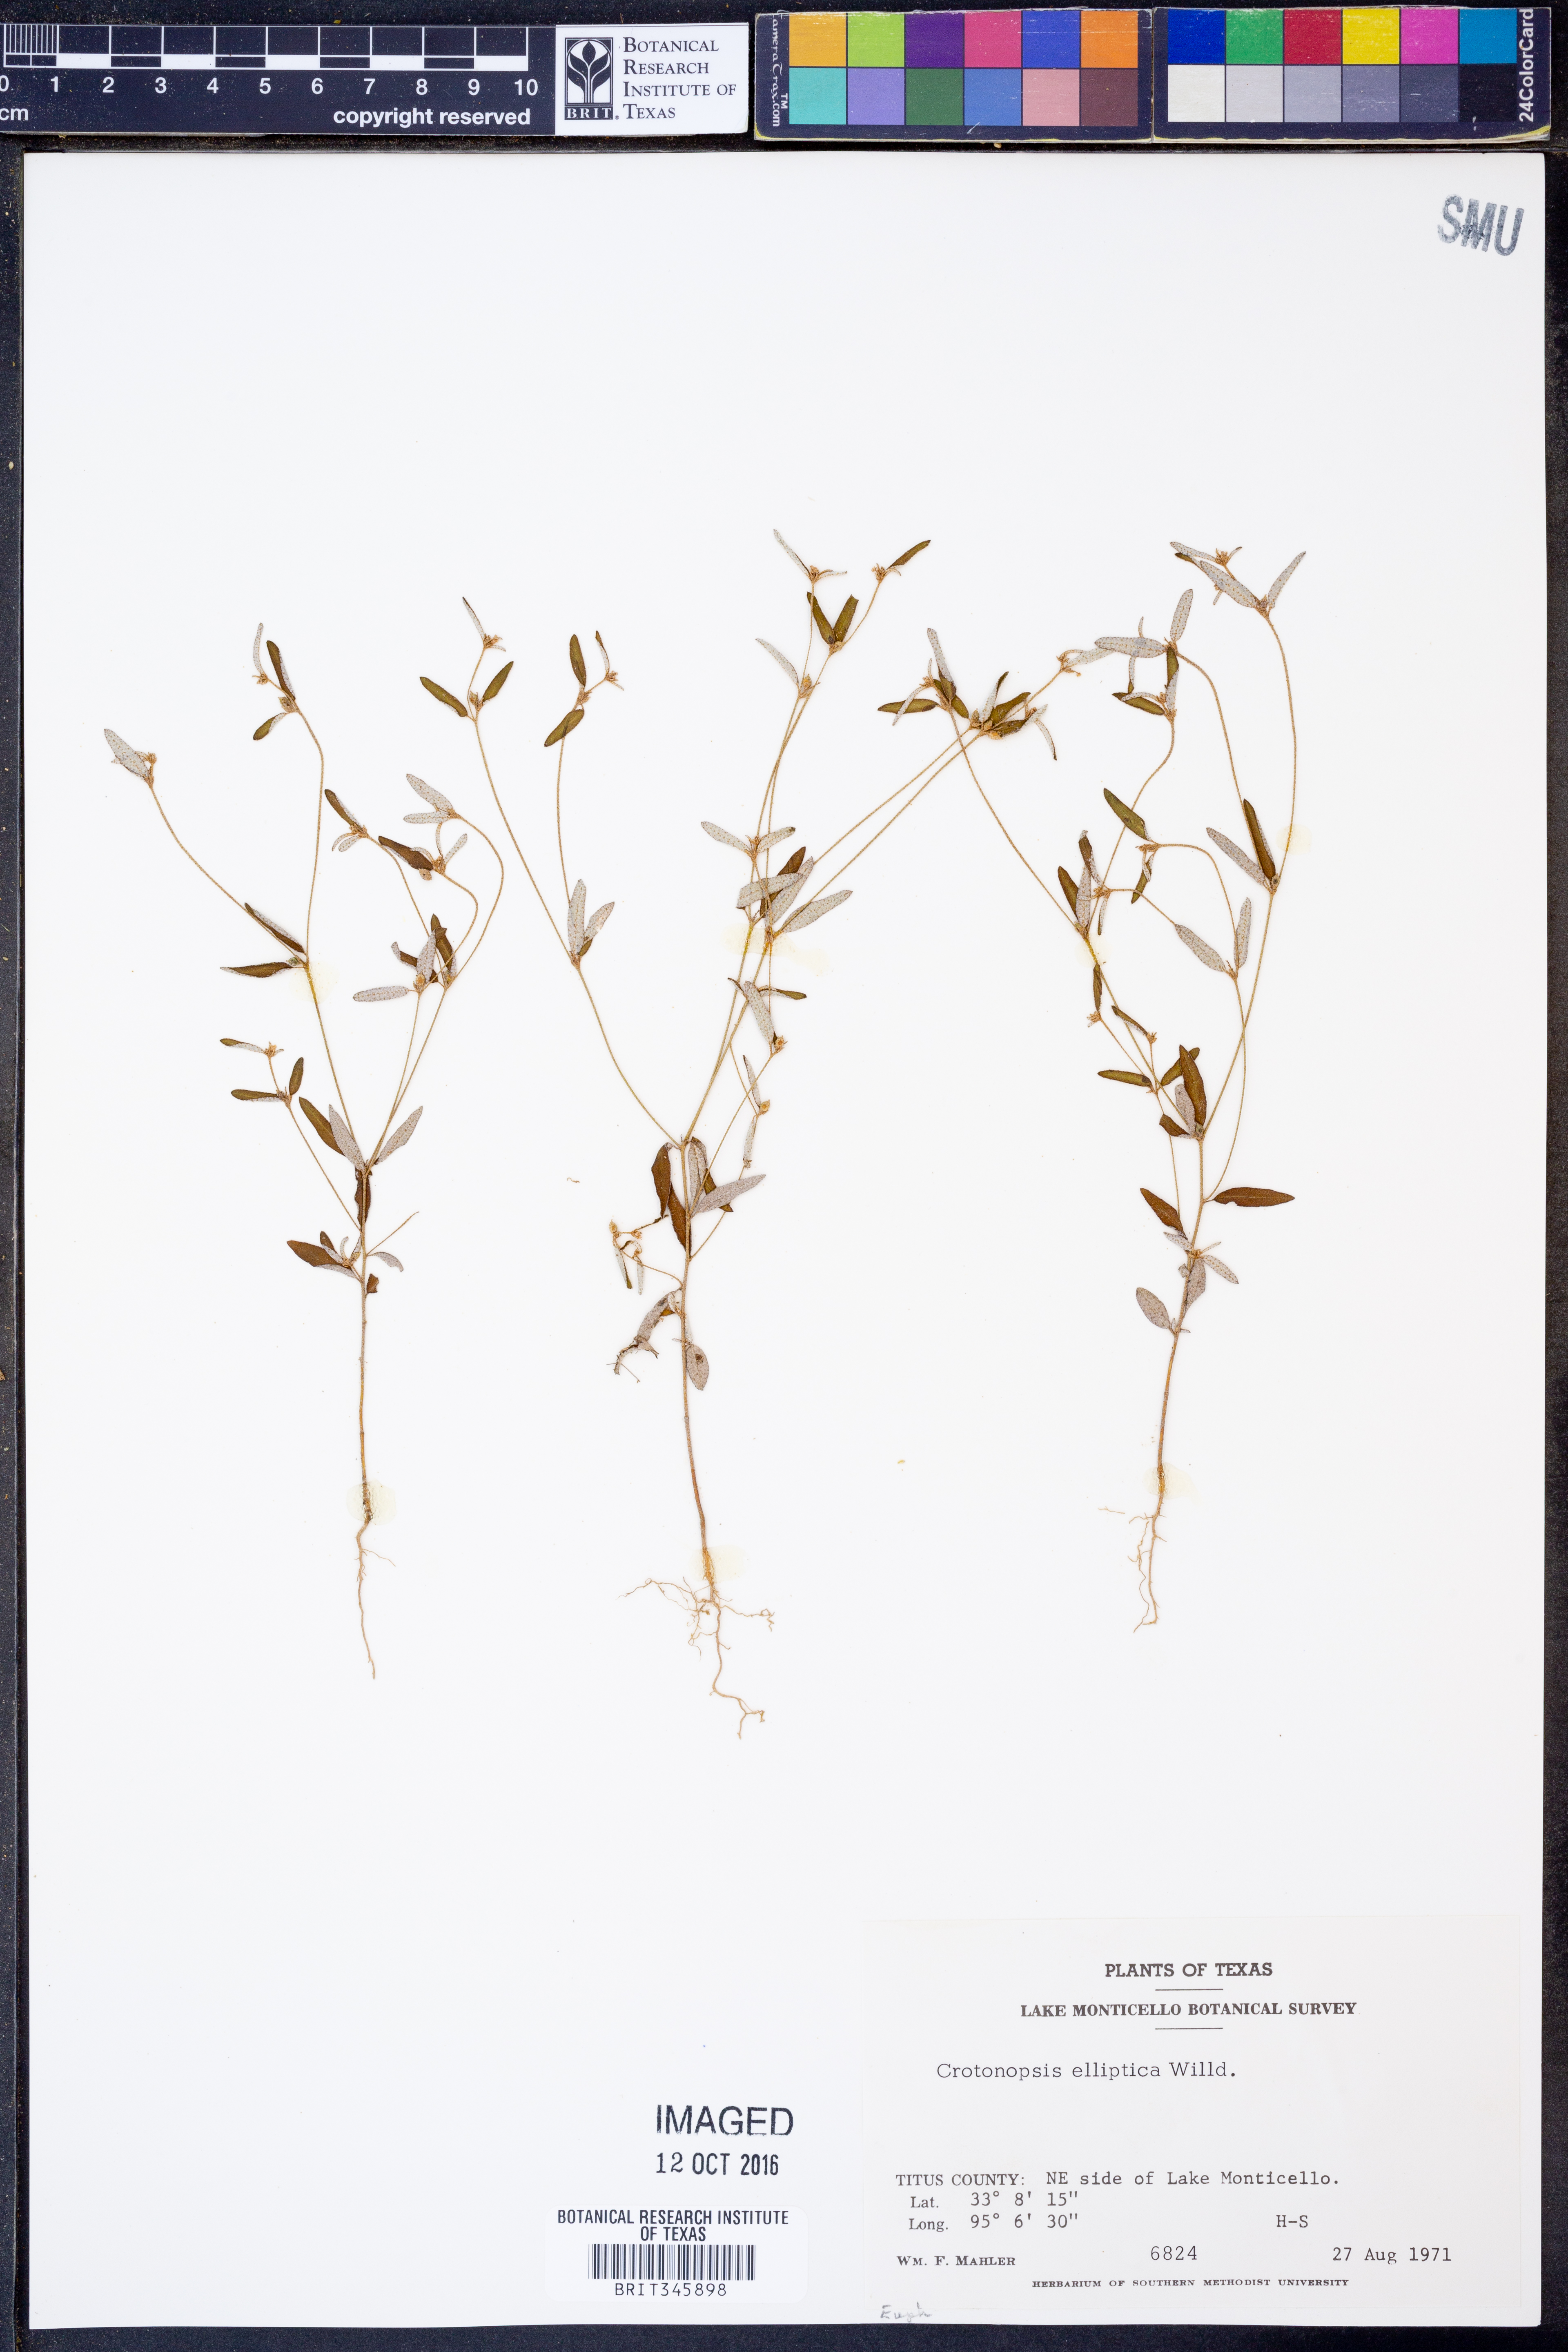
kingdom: Plantae
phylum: Tracheophyta
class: Magnoliopsida
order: Malpighiales
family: Euphorbiaceae
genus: Croton
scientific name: Croton michauxii
